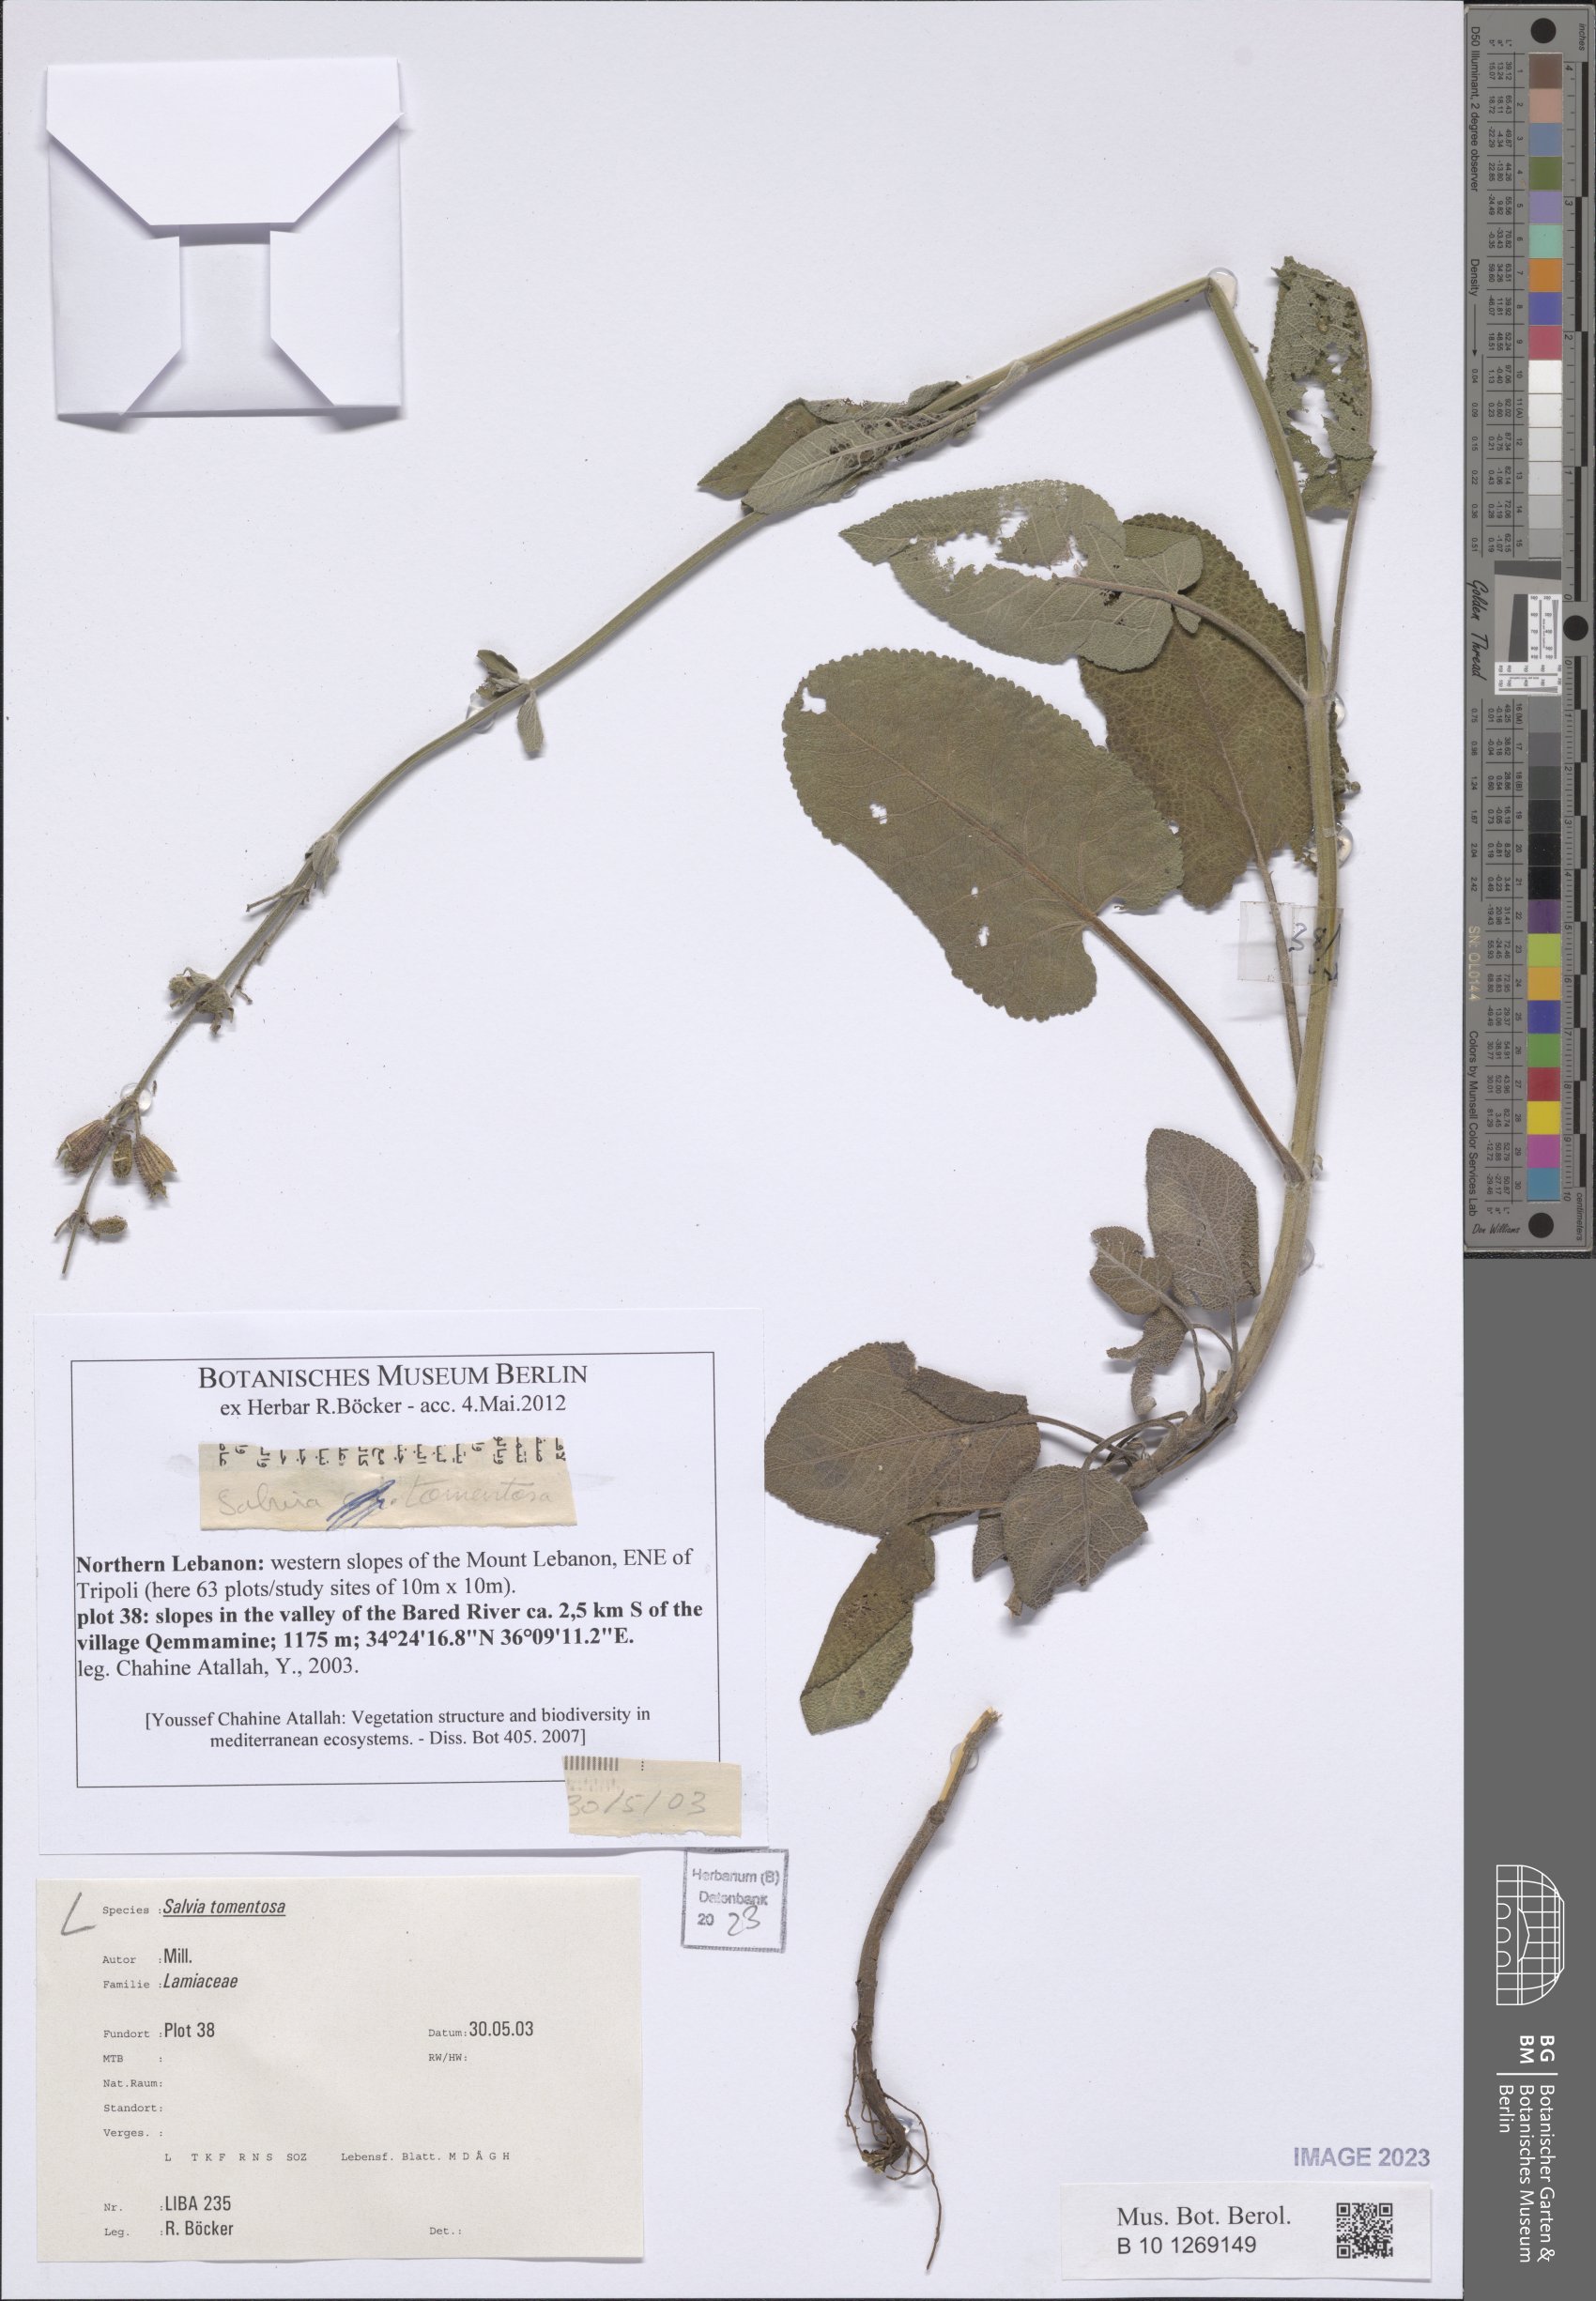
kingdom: Plantae
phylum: Tracheophyta
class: Magnoliopsida
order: Lamiales
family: Lamiaceae
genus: Salvia
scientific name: Salvia tomentosa
